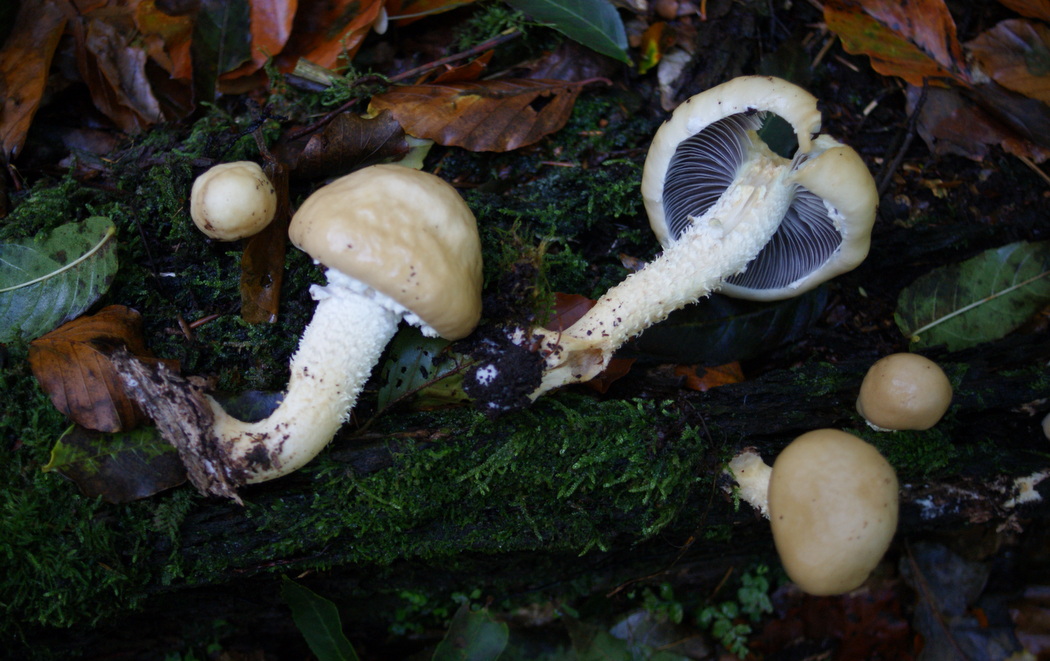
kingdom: Fungi
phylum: Basidiomycota
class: Agaricomycetes
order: Agaricales
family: Strophariaceae
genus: Stropharia
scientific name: Stropharia hornemannii
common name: nordisk bredblad
